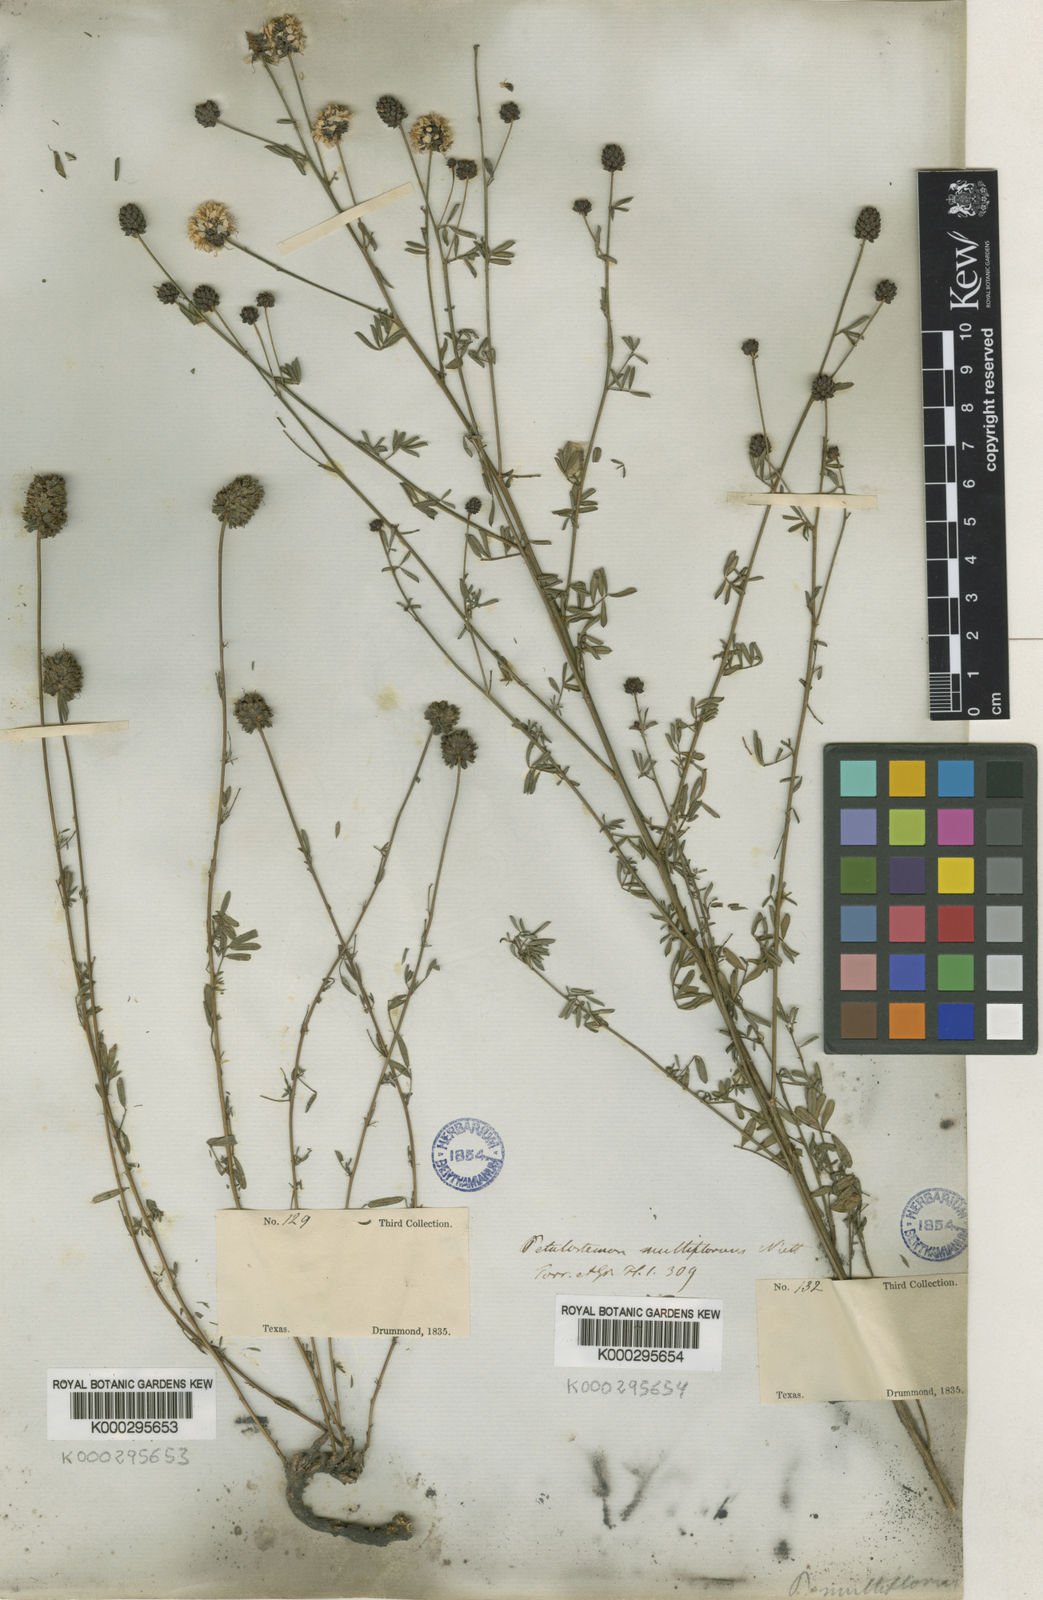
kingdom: Plantae
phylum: Tracheophyta
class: Magnoliopsida
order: Fabales
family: Fabaceae
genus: Dalea
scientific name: Dalea mountjoyae
